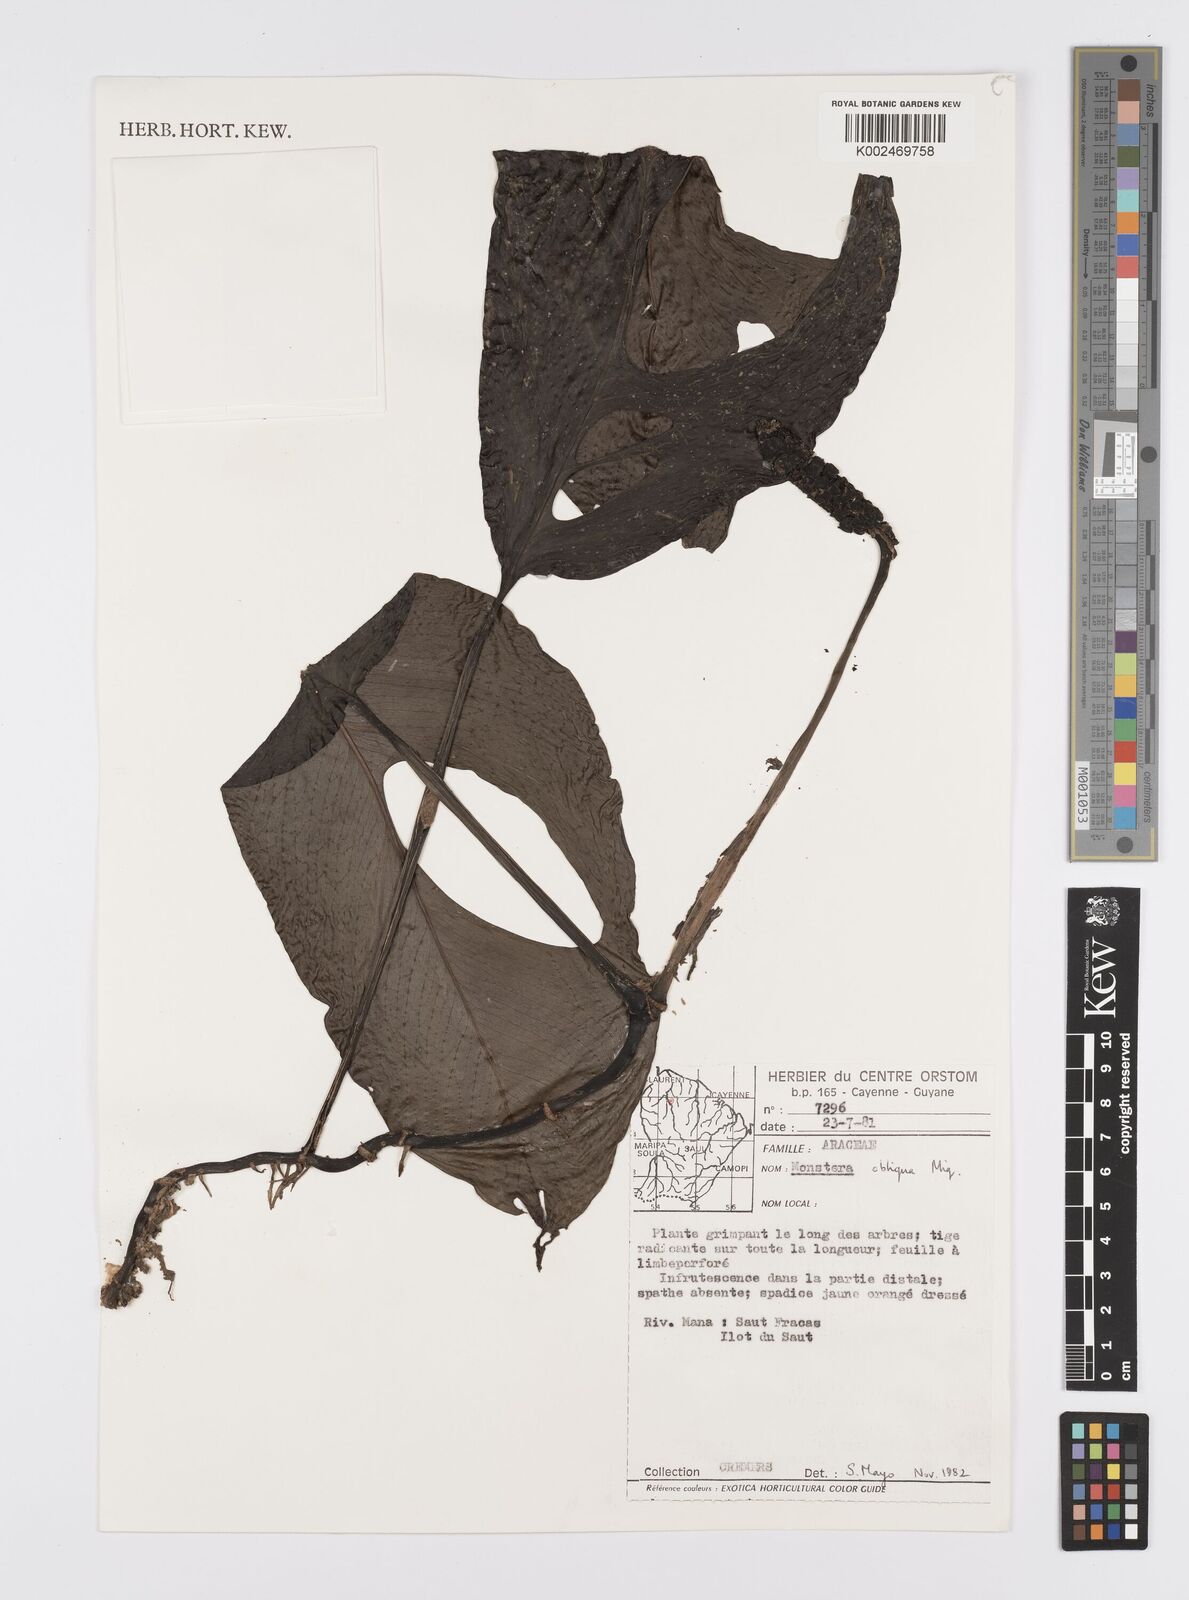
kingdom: Plantae
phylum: Tracheophyta
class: Liliopsida
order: Alismatales
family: Araceae
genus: Monstera
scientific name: Monstera obliqua
